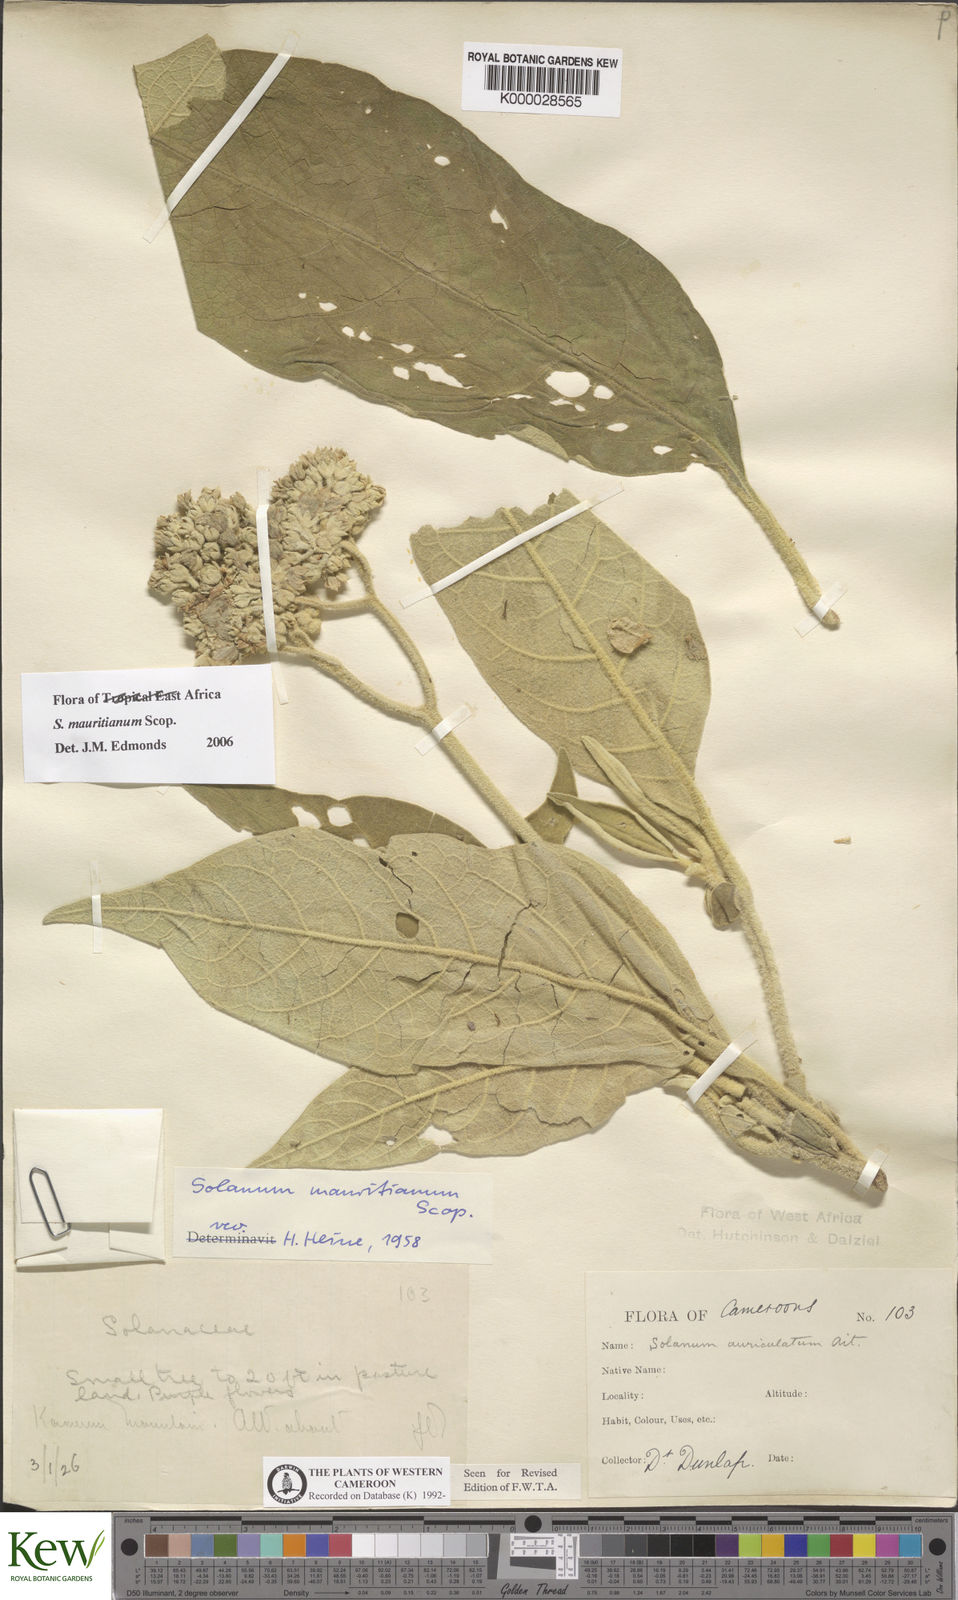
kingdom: Plantae
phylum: Tracheophyta
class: Magnoliopsida
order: Solanales
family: Solanaceae
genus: Solanum
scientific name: Solanum mauritianum
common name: Earleaf nightshade
